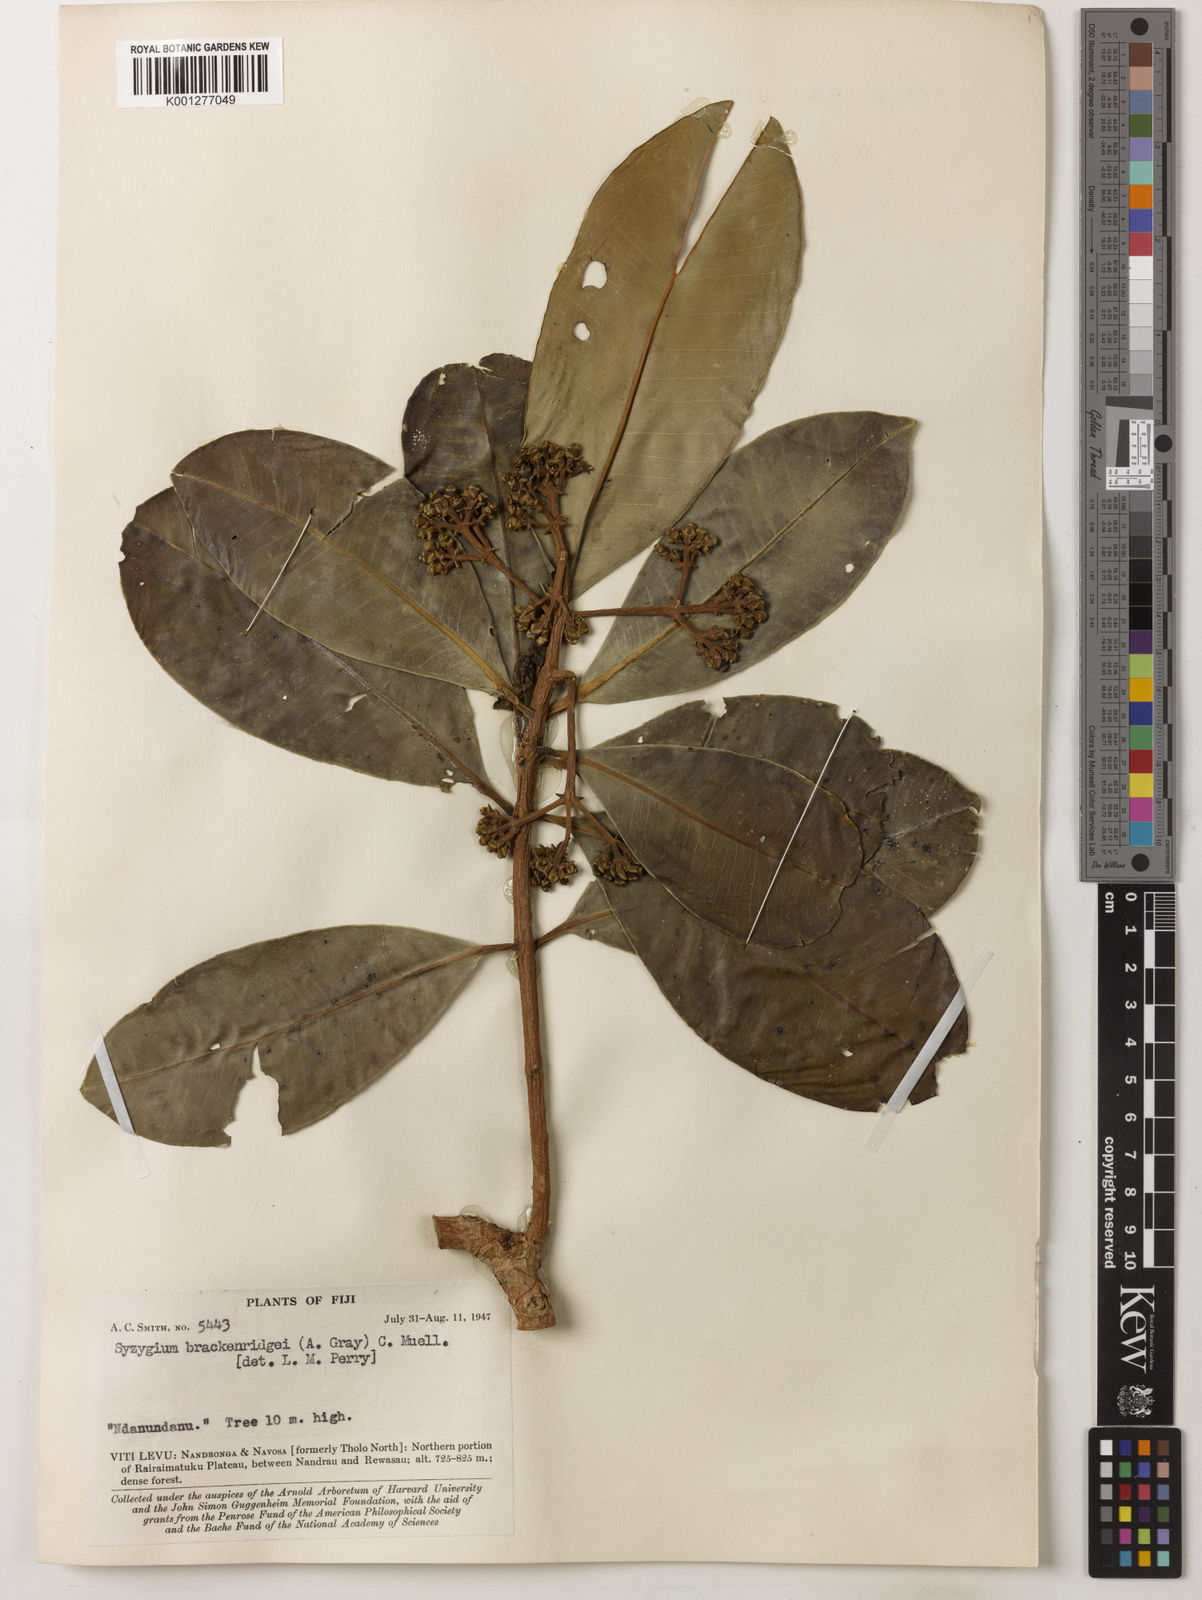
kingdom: Plantae
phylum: Tracheophyta
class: Magnoliopsida
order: Myrtales
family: Myrtaceae
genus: Syzygium
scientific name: Syzygium
